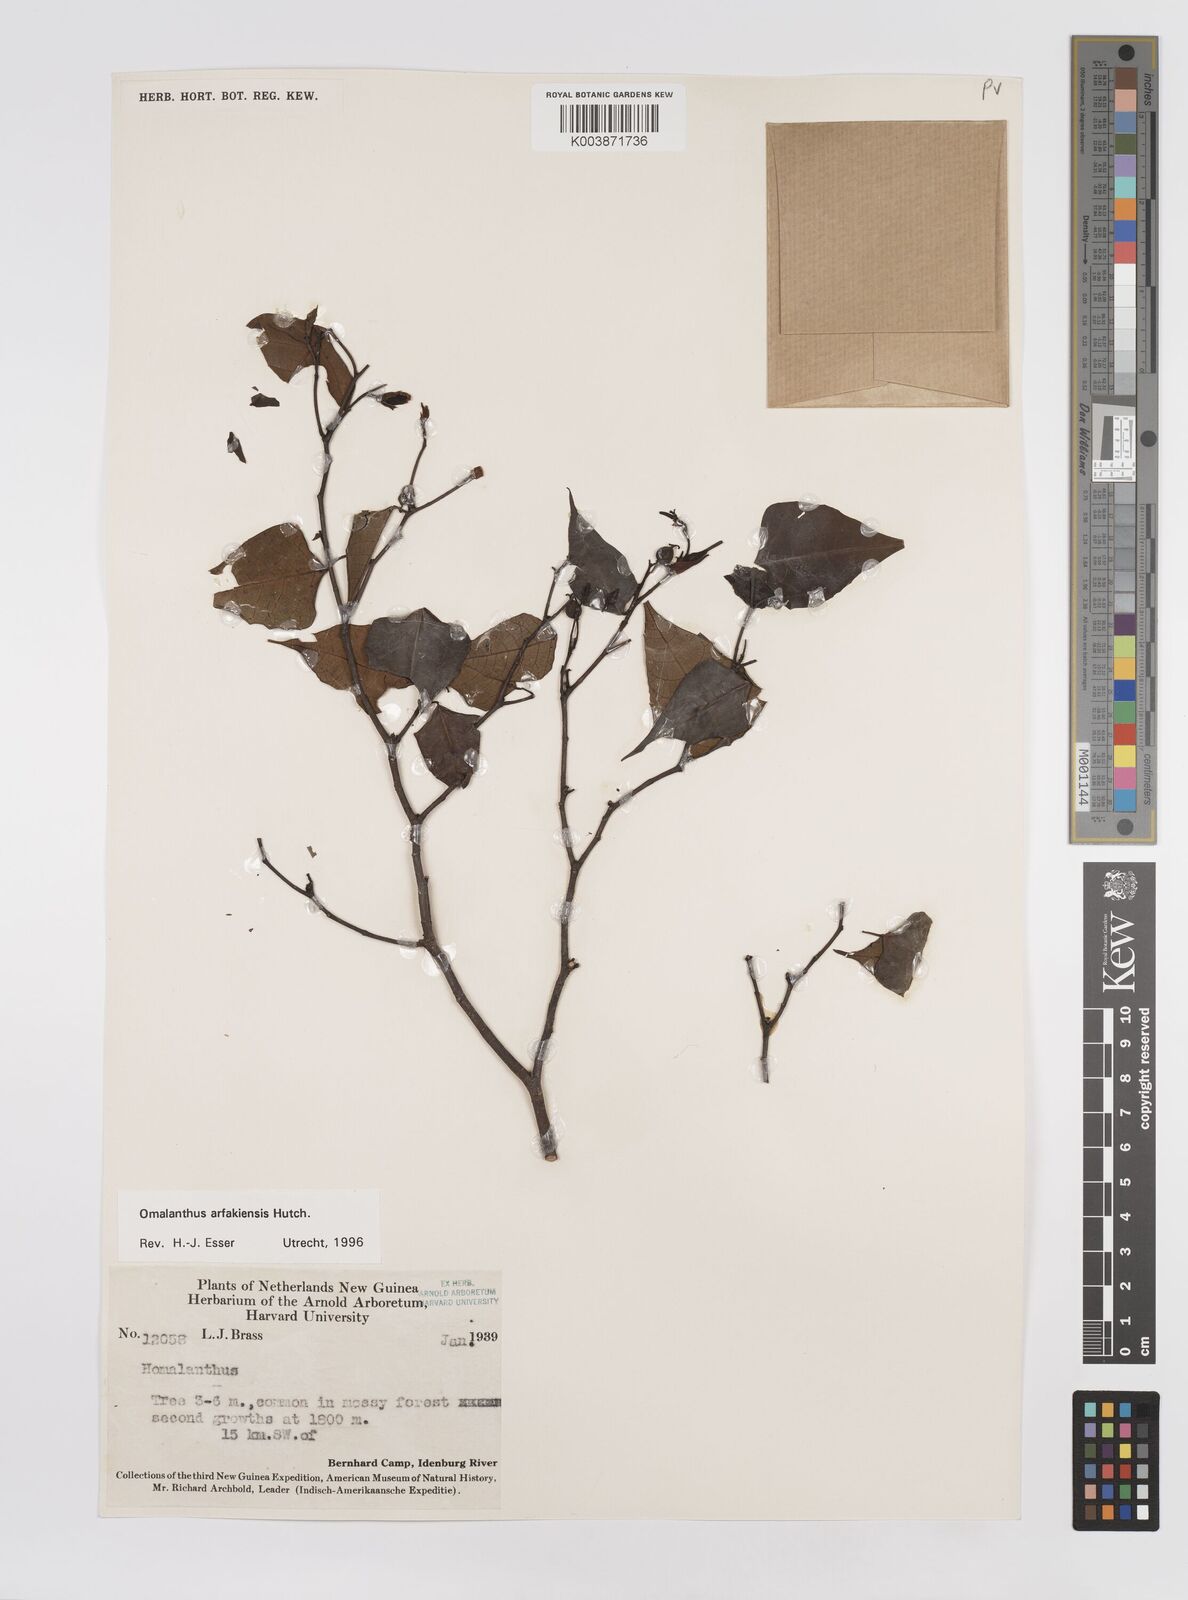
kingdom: Plantae
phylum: Tracheophyta
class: Magnoliopsida
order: Malpighiales
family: Euphorbiaceae
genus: Homalanthus
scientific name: Homalanthus arfakiensis
